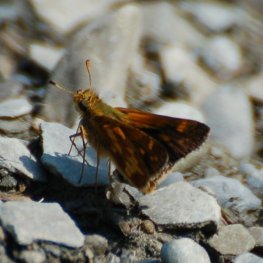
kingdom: Animalia
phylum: Arthropoda
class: Insecta
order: Lepidoptera
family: Hesperiidae
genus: Polites
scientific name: Polites coras
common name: Peck's Skipper
